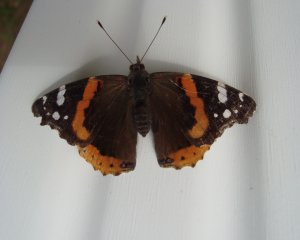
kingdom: Animalia
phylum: Arthropoda
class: Insecta
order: Lepidoptera
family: Nymphalidae
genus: Vanessa
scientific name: Vanessa atalanta
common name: Red Admiral
